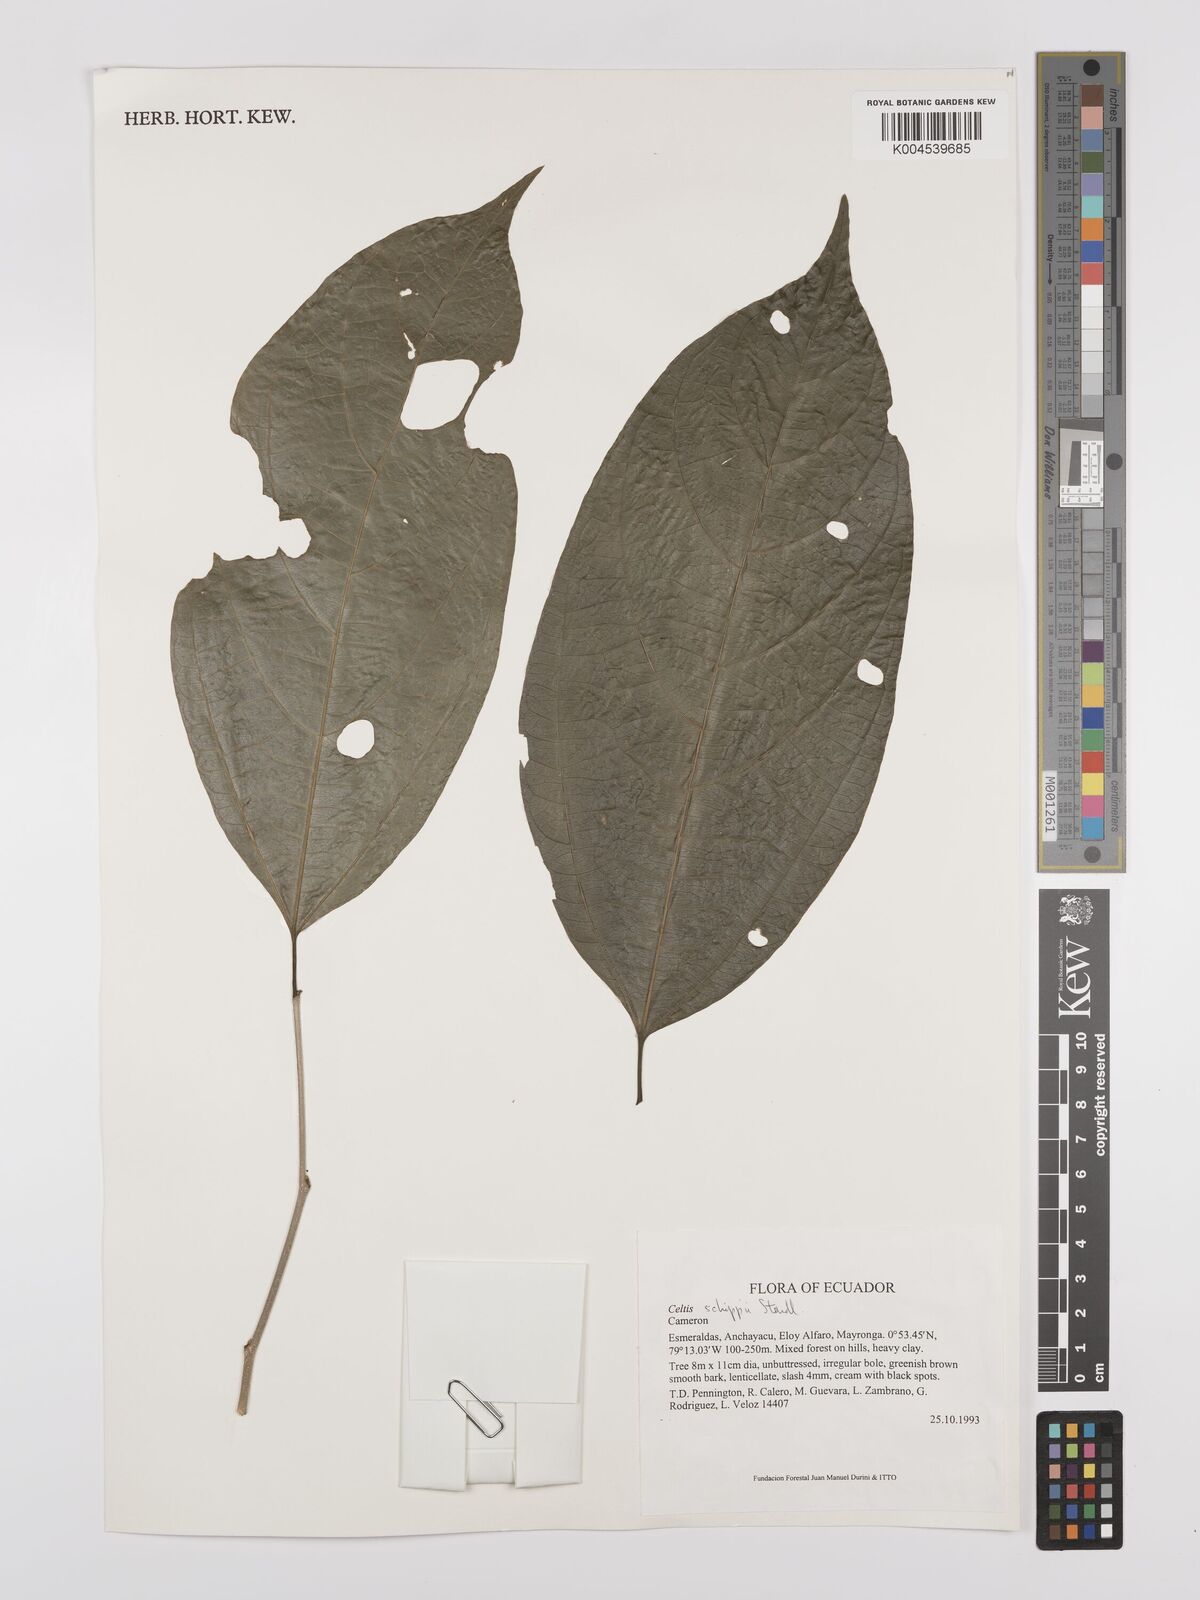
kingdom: Plantae
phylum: Tracheophyta
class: Magnoliopsida
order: Rosales
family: Cannabaceae
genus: Celtis
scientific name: Celtis schippii
